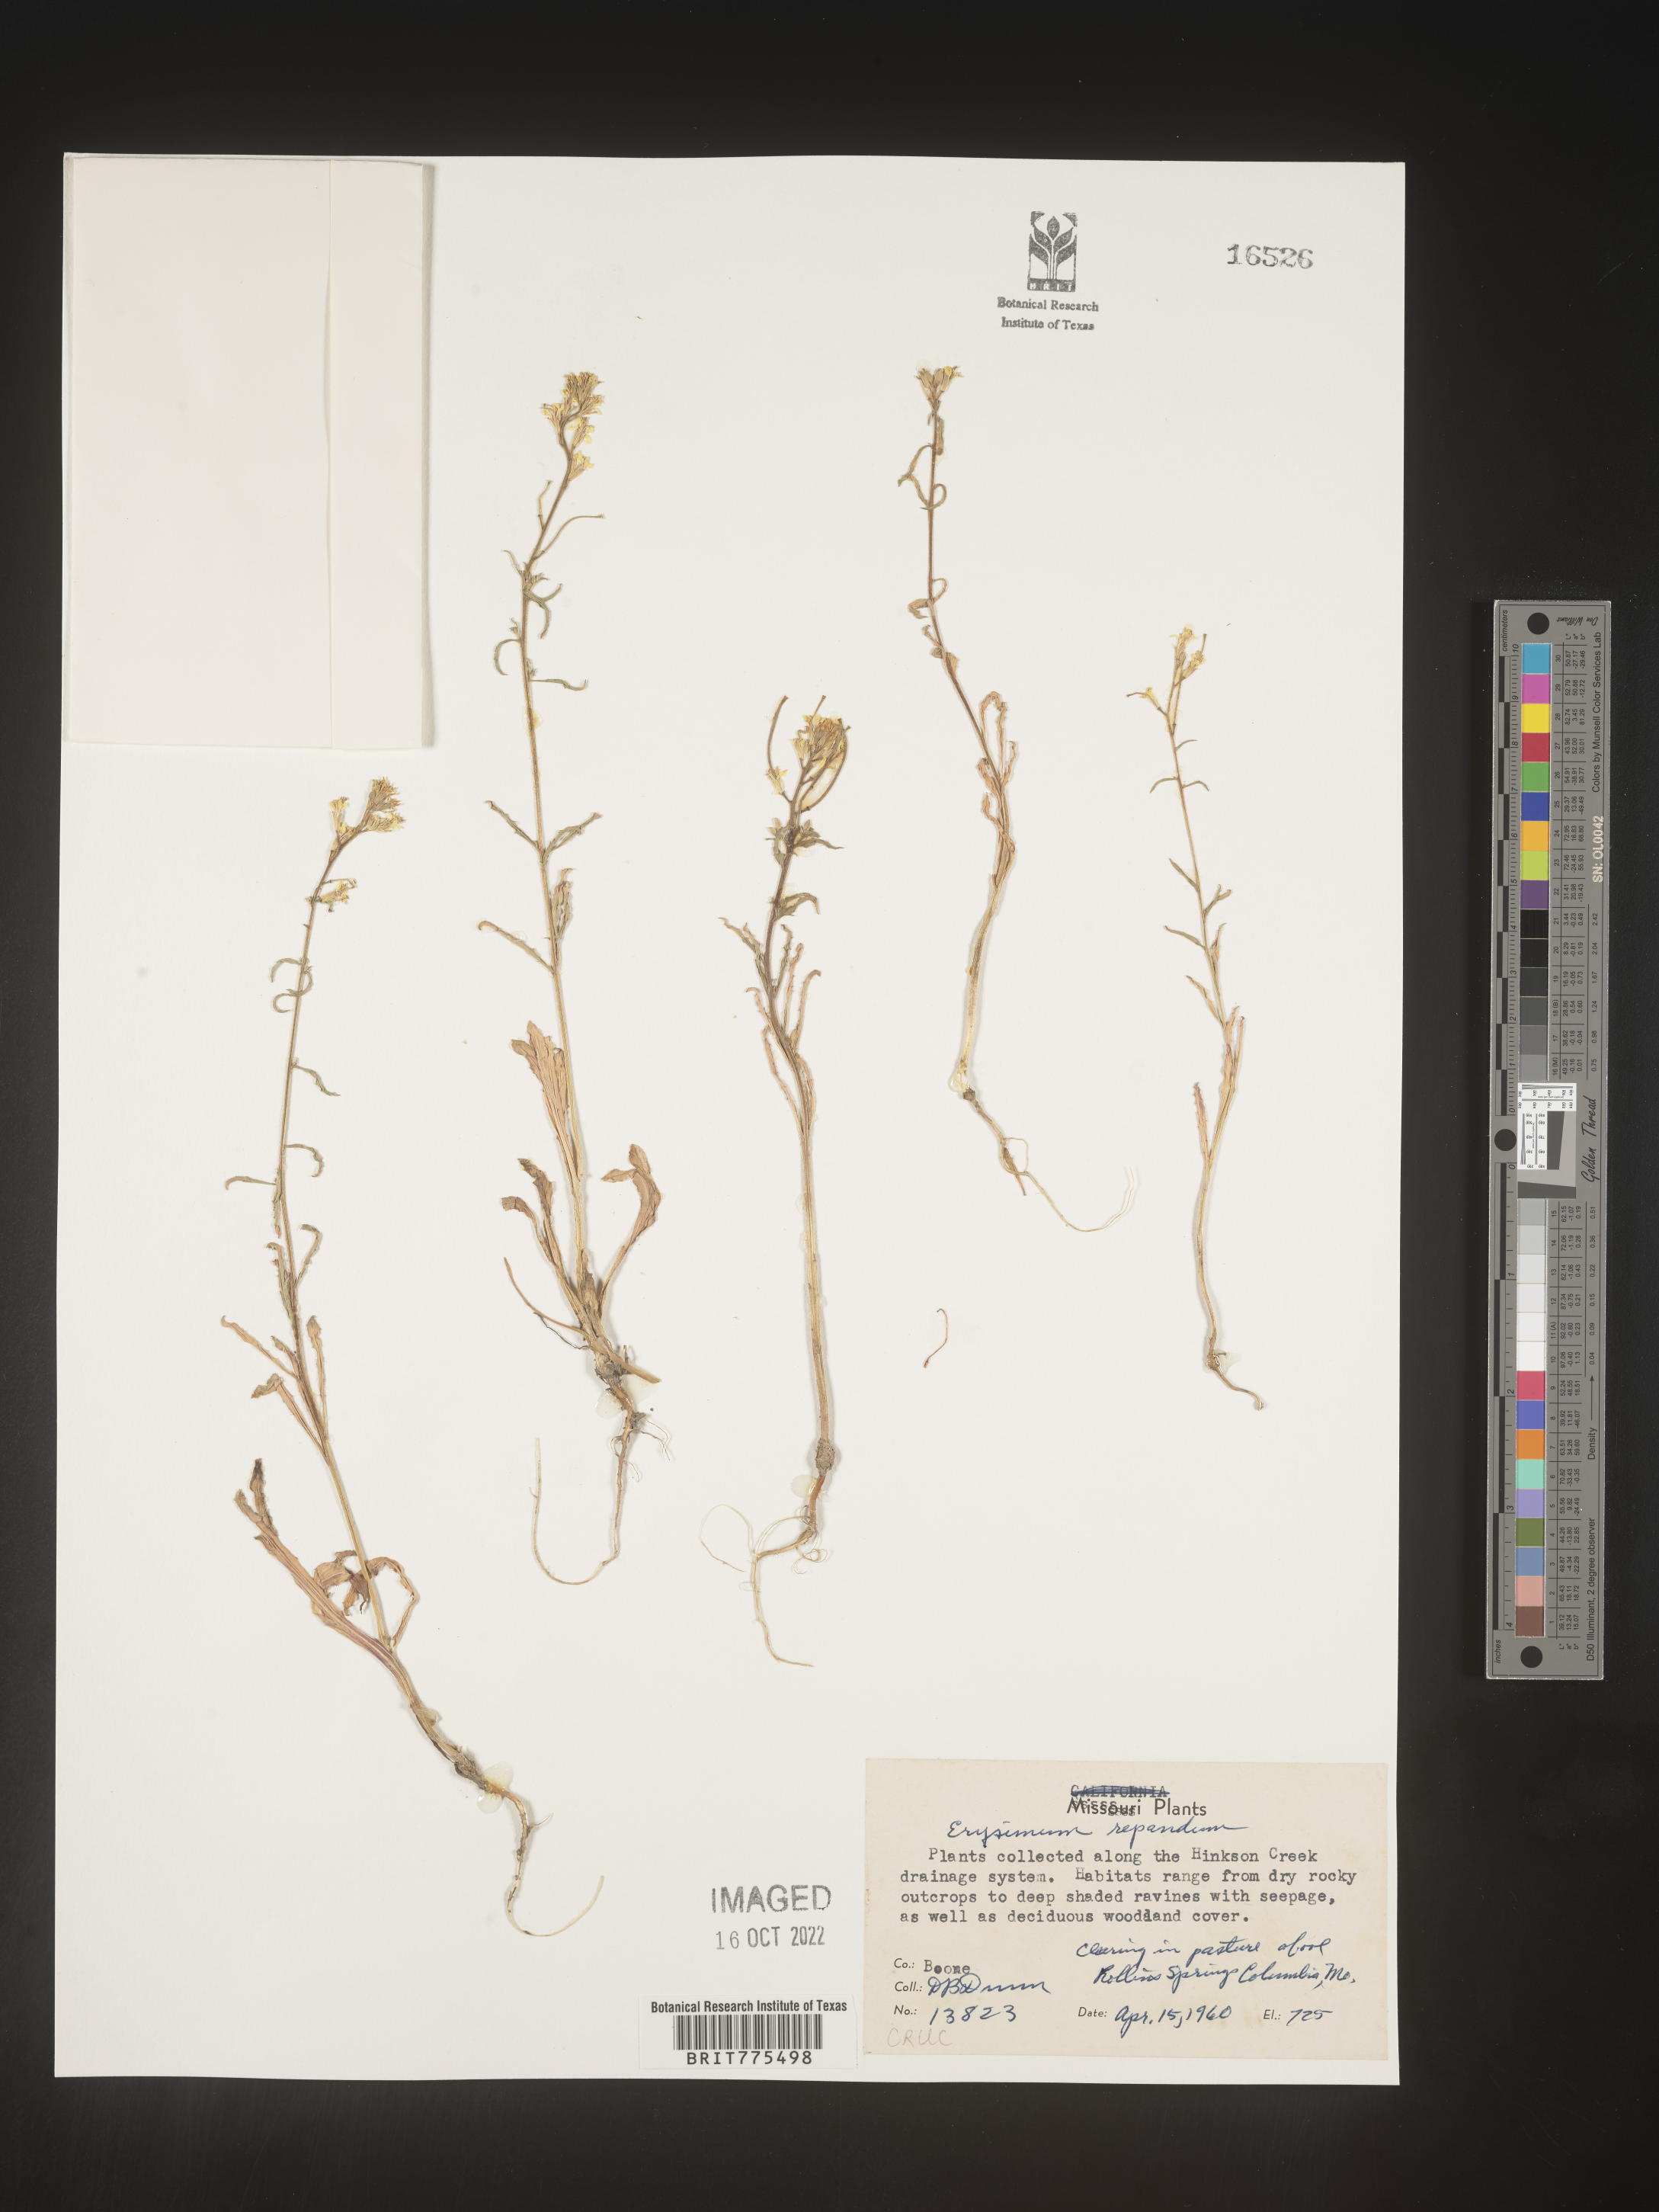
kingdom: Plantae
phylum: Tracheophyta
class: Magnoliopsida
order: Brassicales
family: Brassicaceae
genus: Erysimum
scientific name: Erysimum repandum
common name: Spreading wallflower
